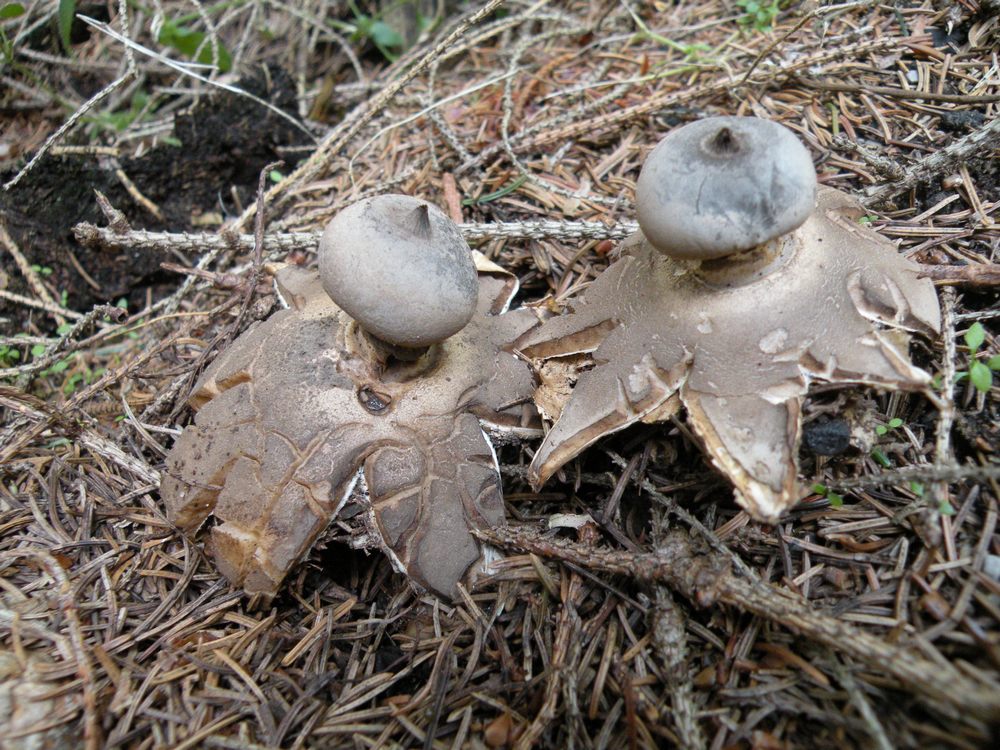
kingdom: Fungi
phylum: Basidiomycota
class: Agaricomycetes
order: Geastrales
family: Geastraceae
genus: Geastrum
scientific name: Geastrum pectinatum
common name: stilket stjernebold
